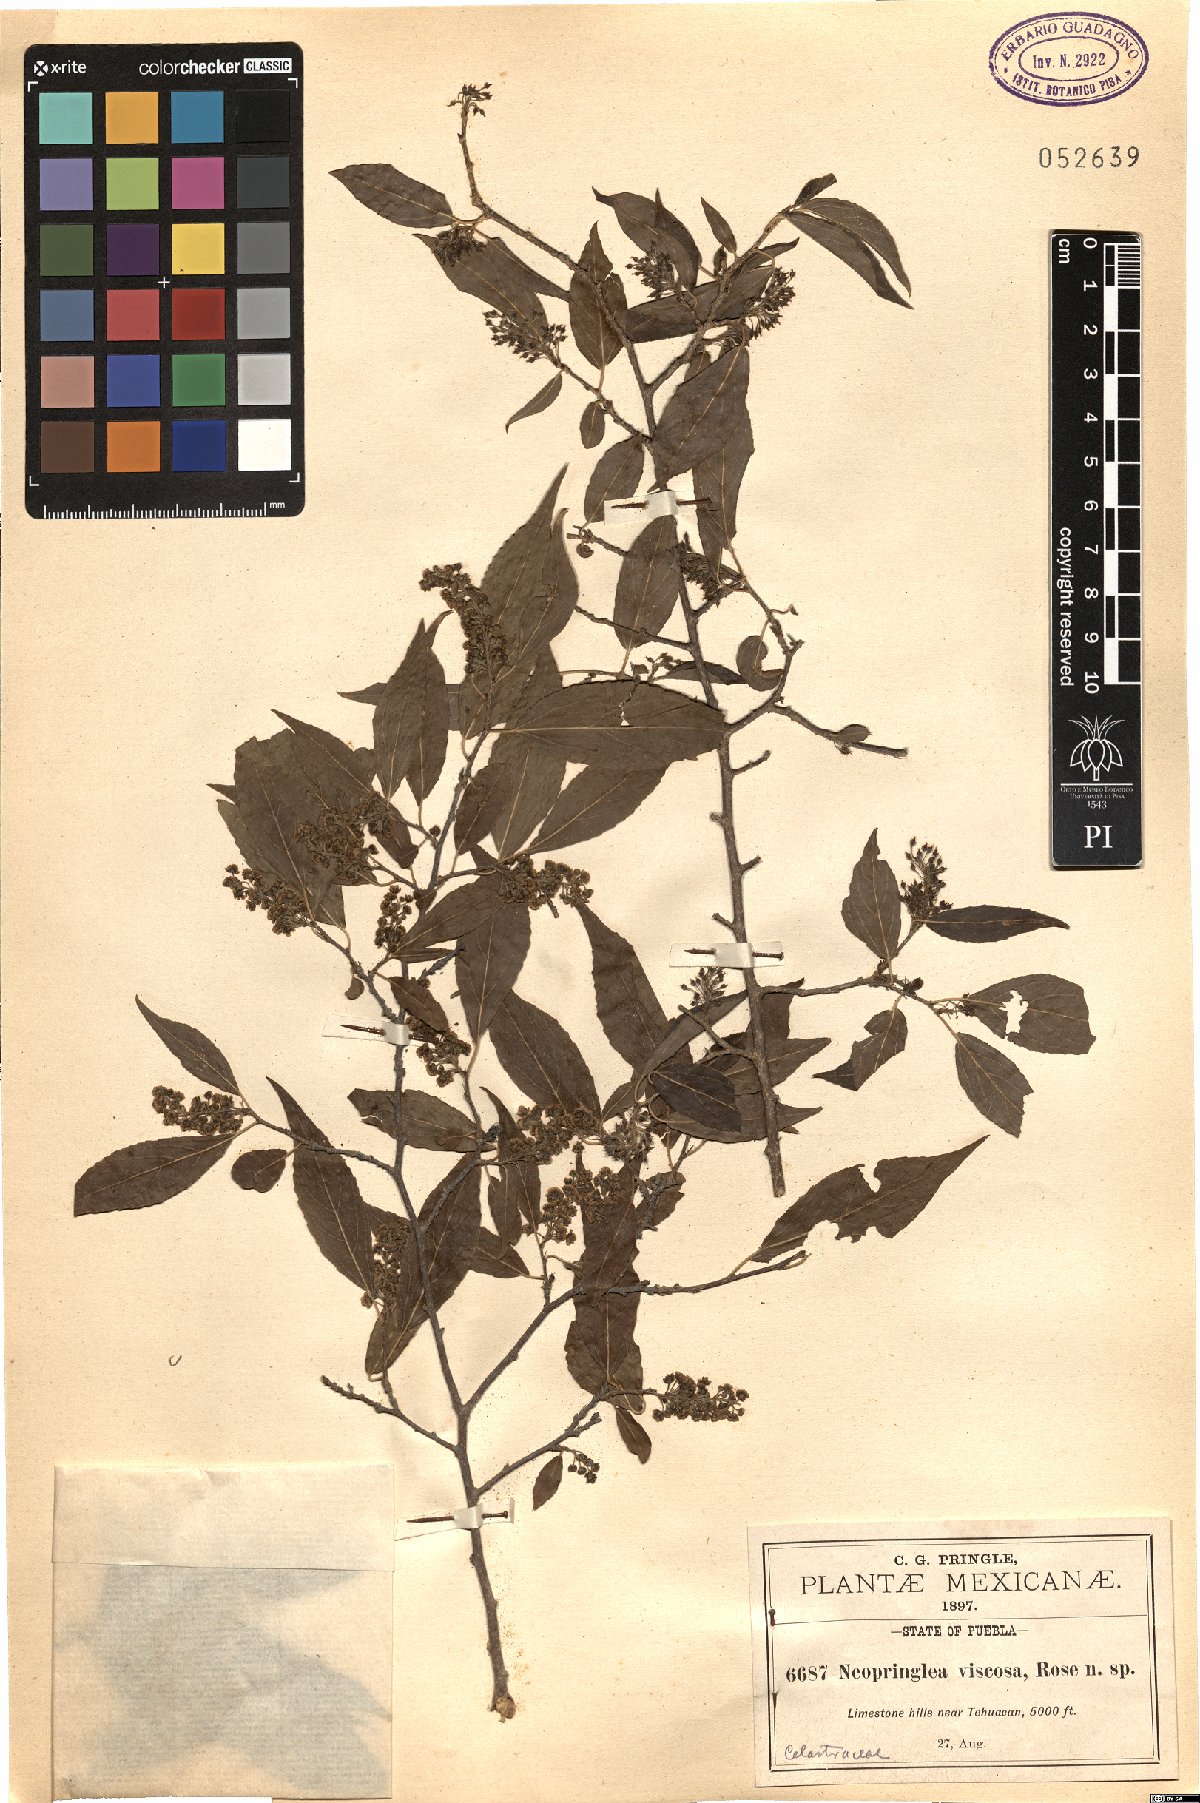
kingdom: Plantae
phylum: Tracheophyta
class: Magnoliopsida
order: Malpighiales
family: Salicaceae
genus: Neopringlea
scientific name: Neopringlea viscosa
